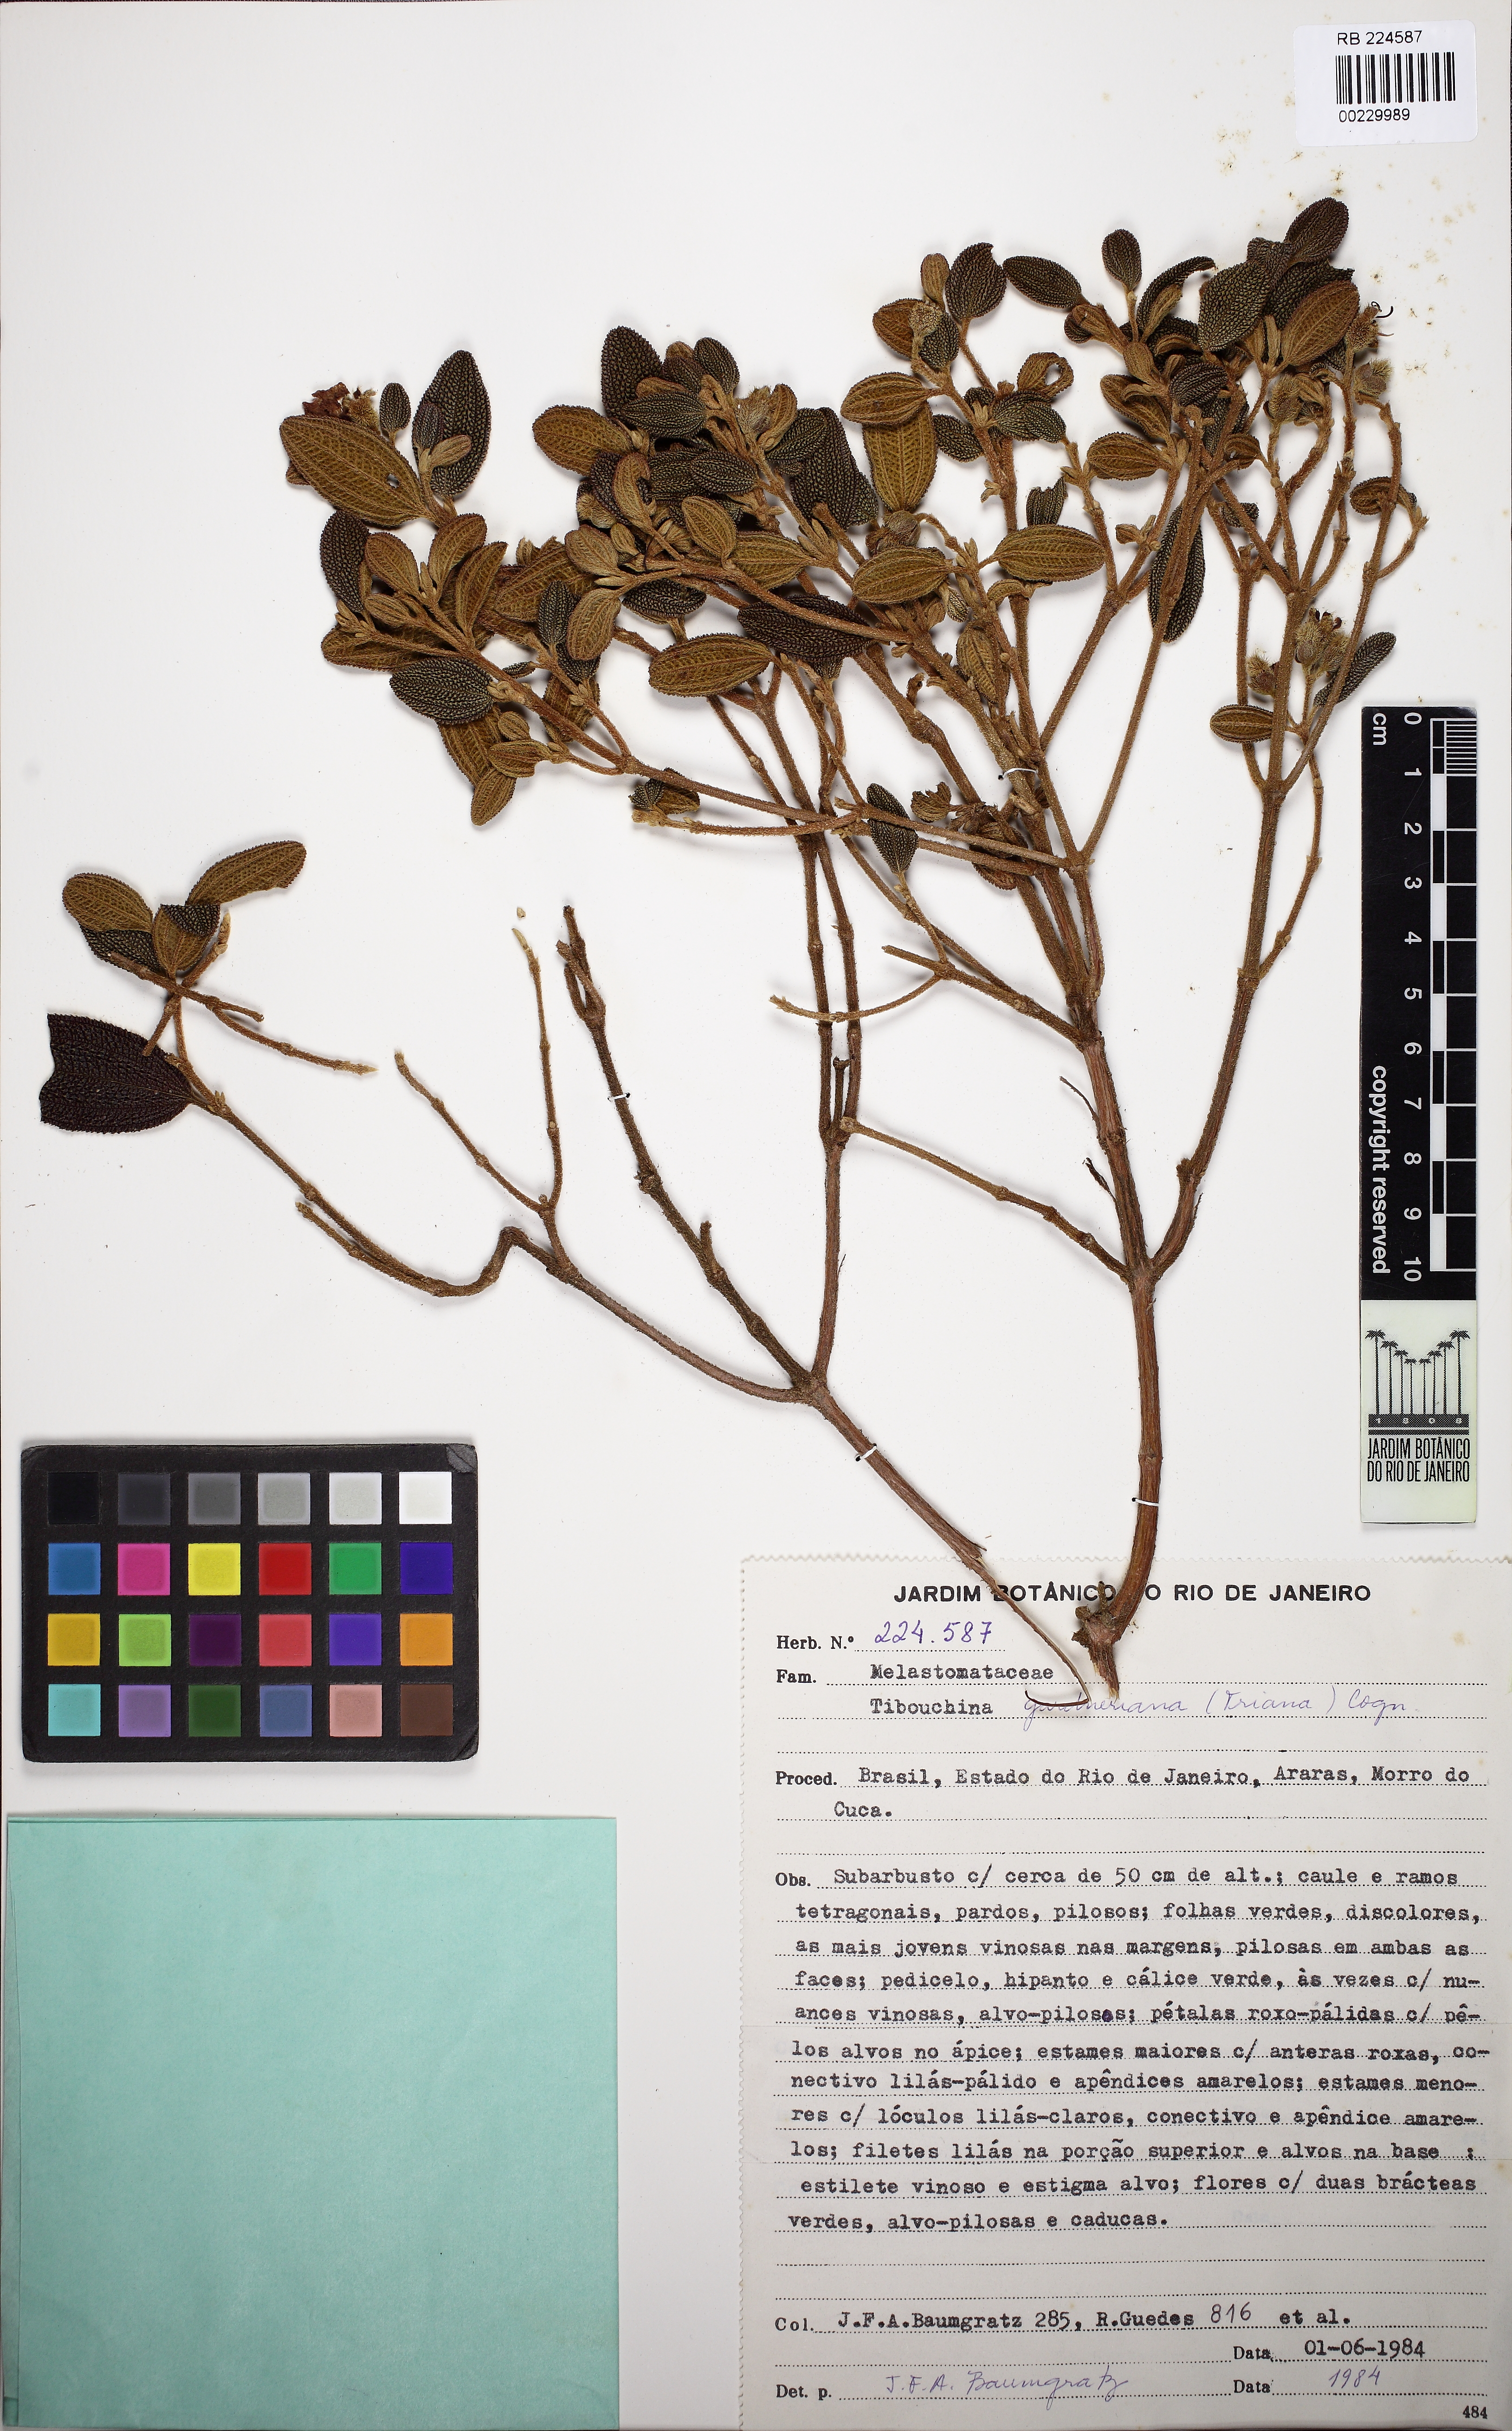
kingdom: Plantae
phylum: Tracheophyta
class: Magnoliopsida
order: Myrtales
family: Melastomataceae
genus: Pleroma
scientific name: Pleroma echinatum
